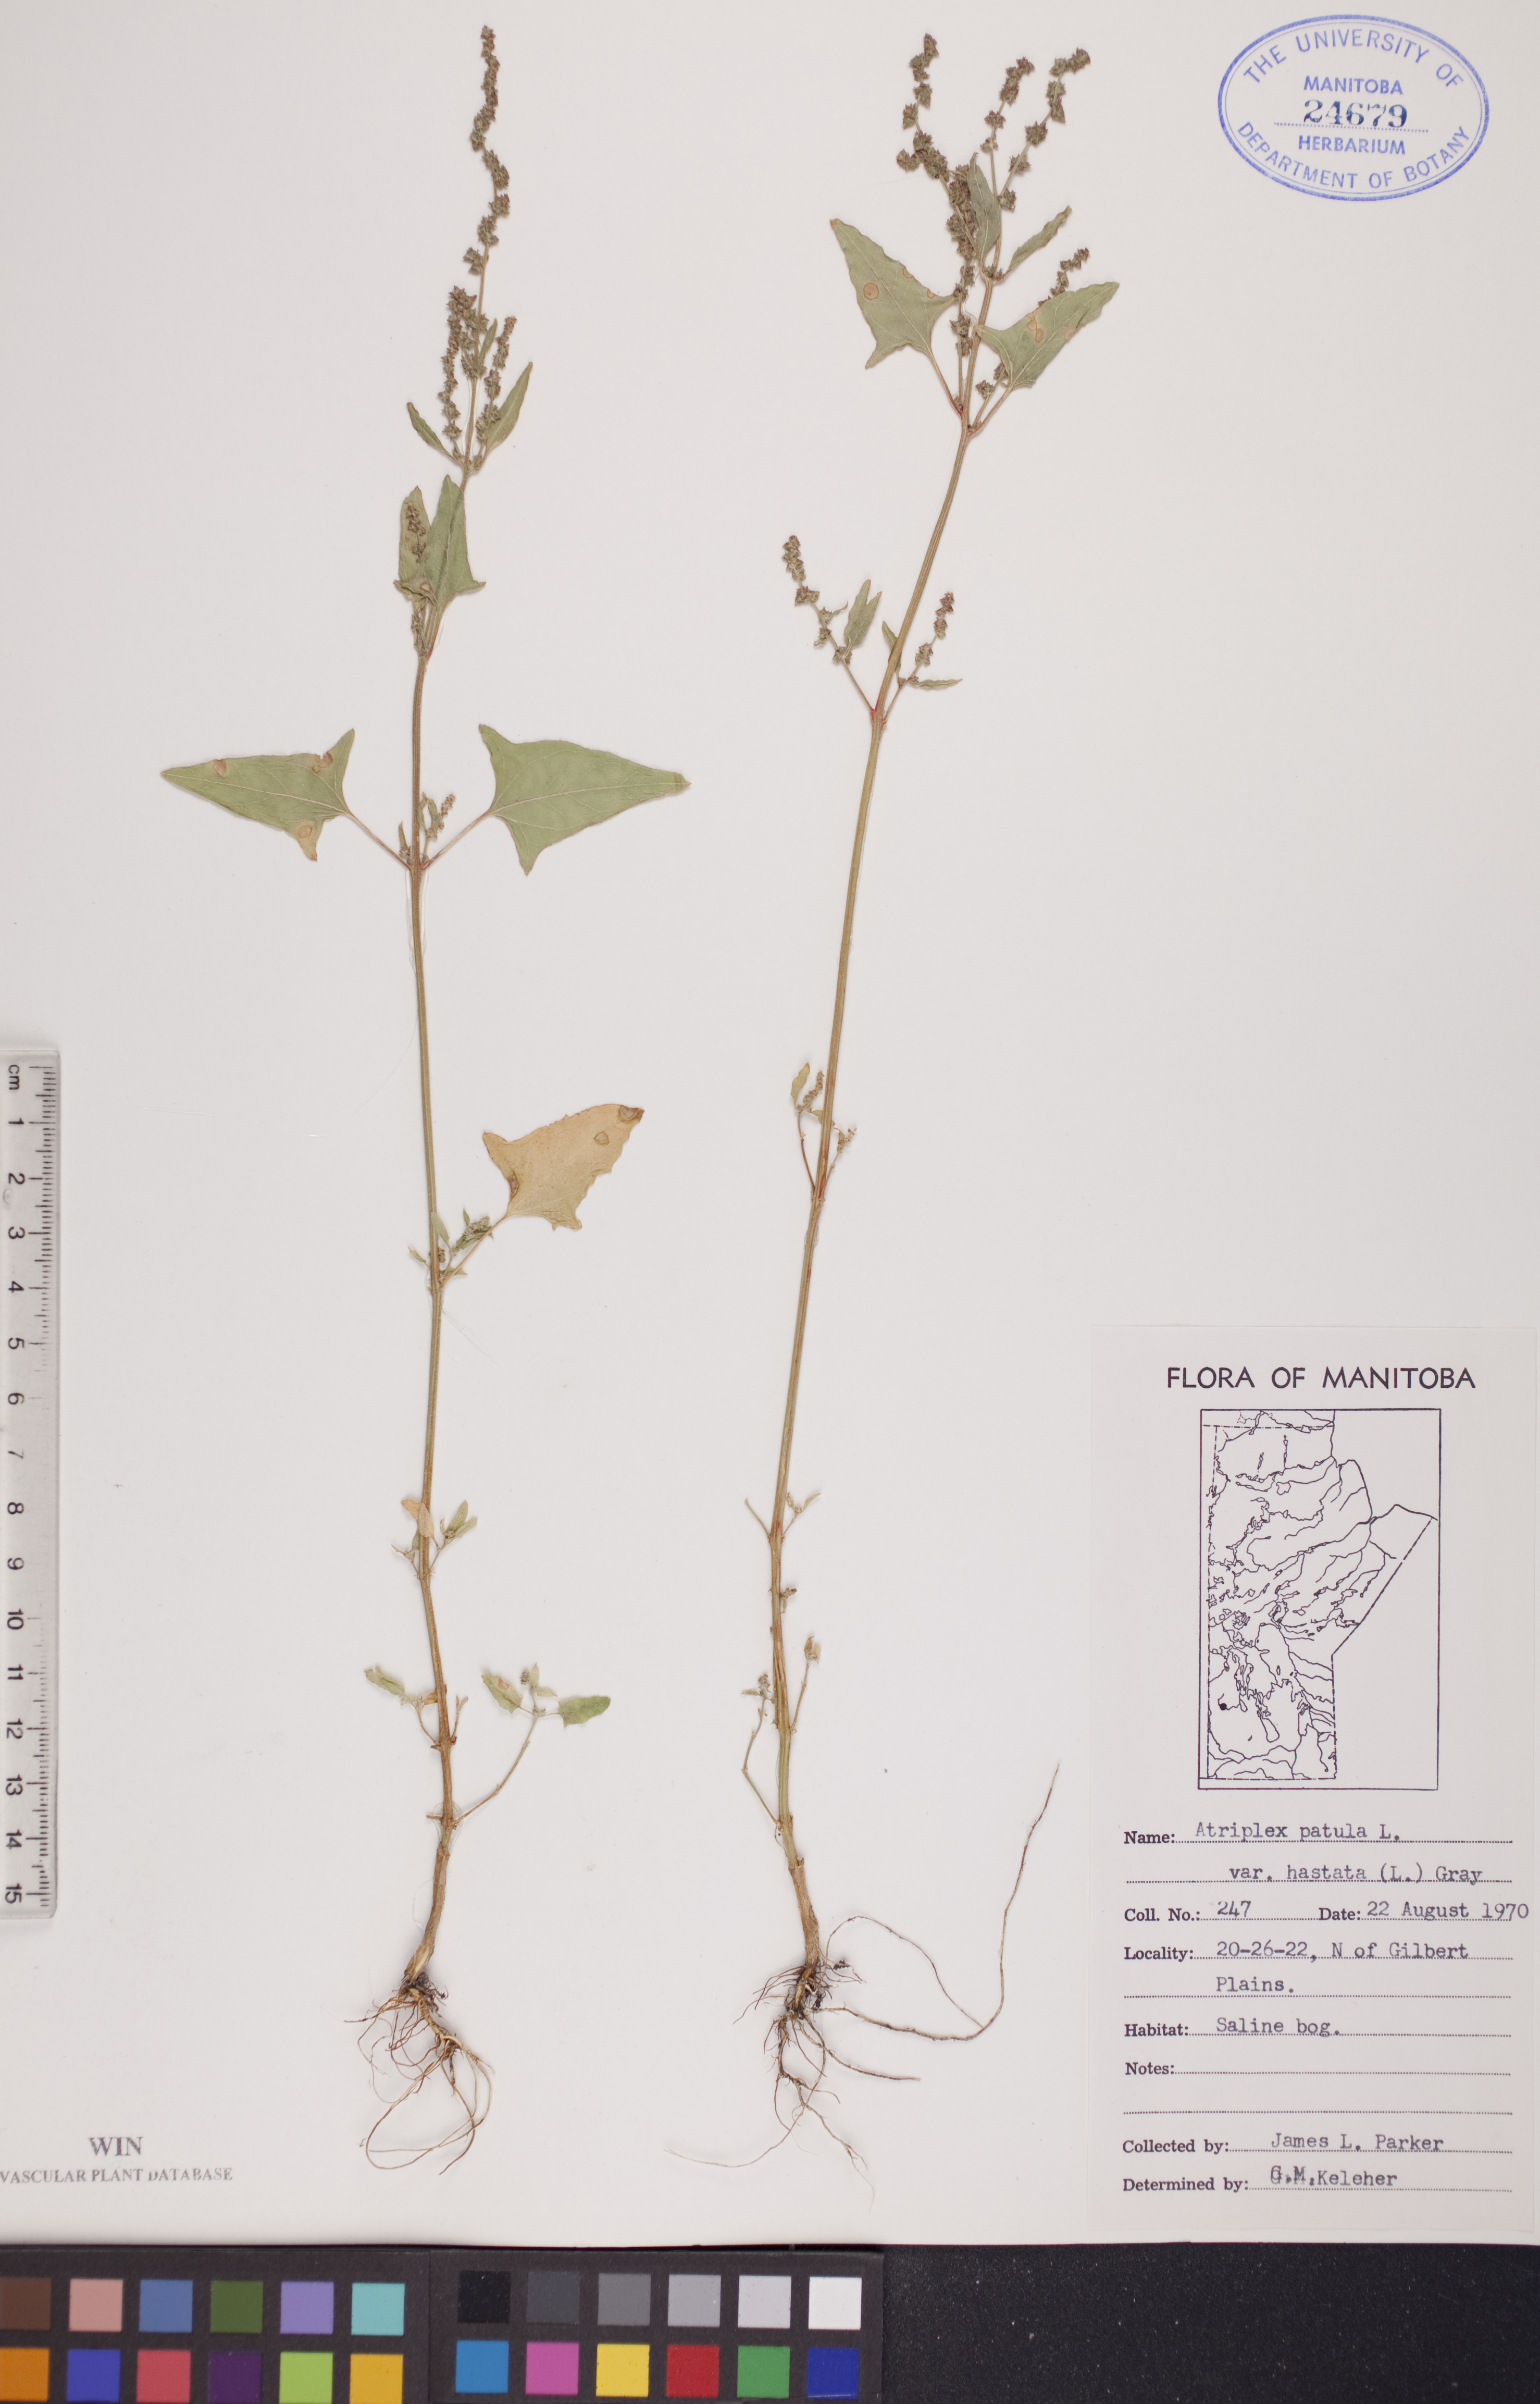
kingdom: Plantae
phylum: Tracheophyta
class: Magnoliopsida
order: Caryophyllales
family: Amaranthaceae
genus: Atriplex
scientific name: Atriplex
